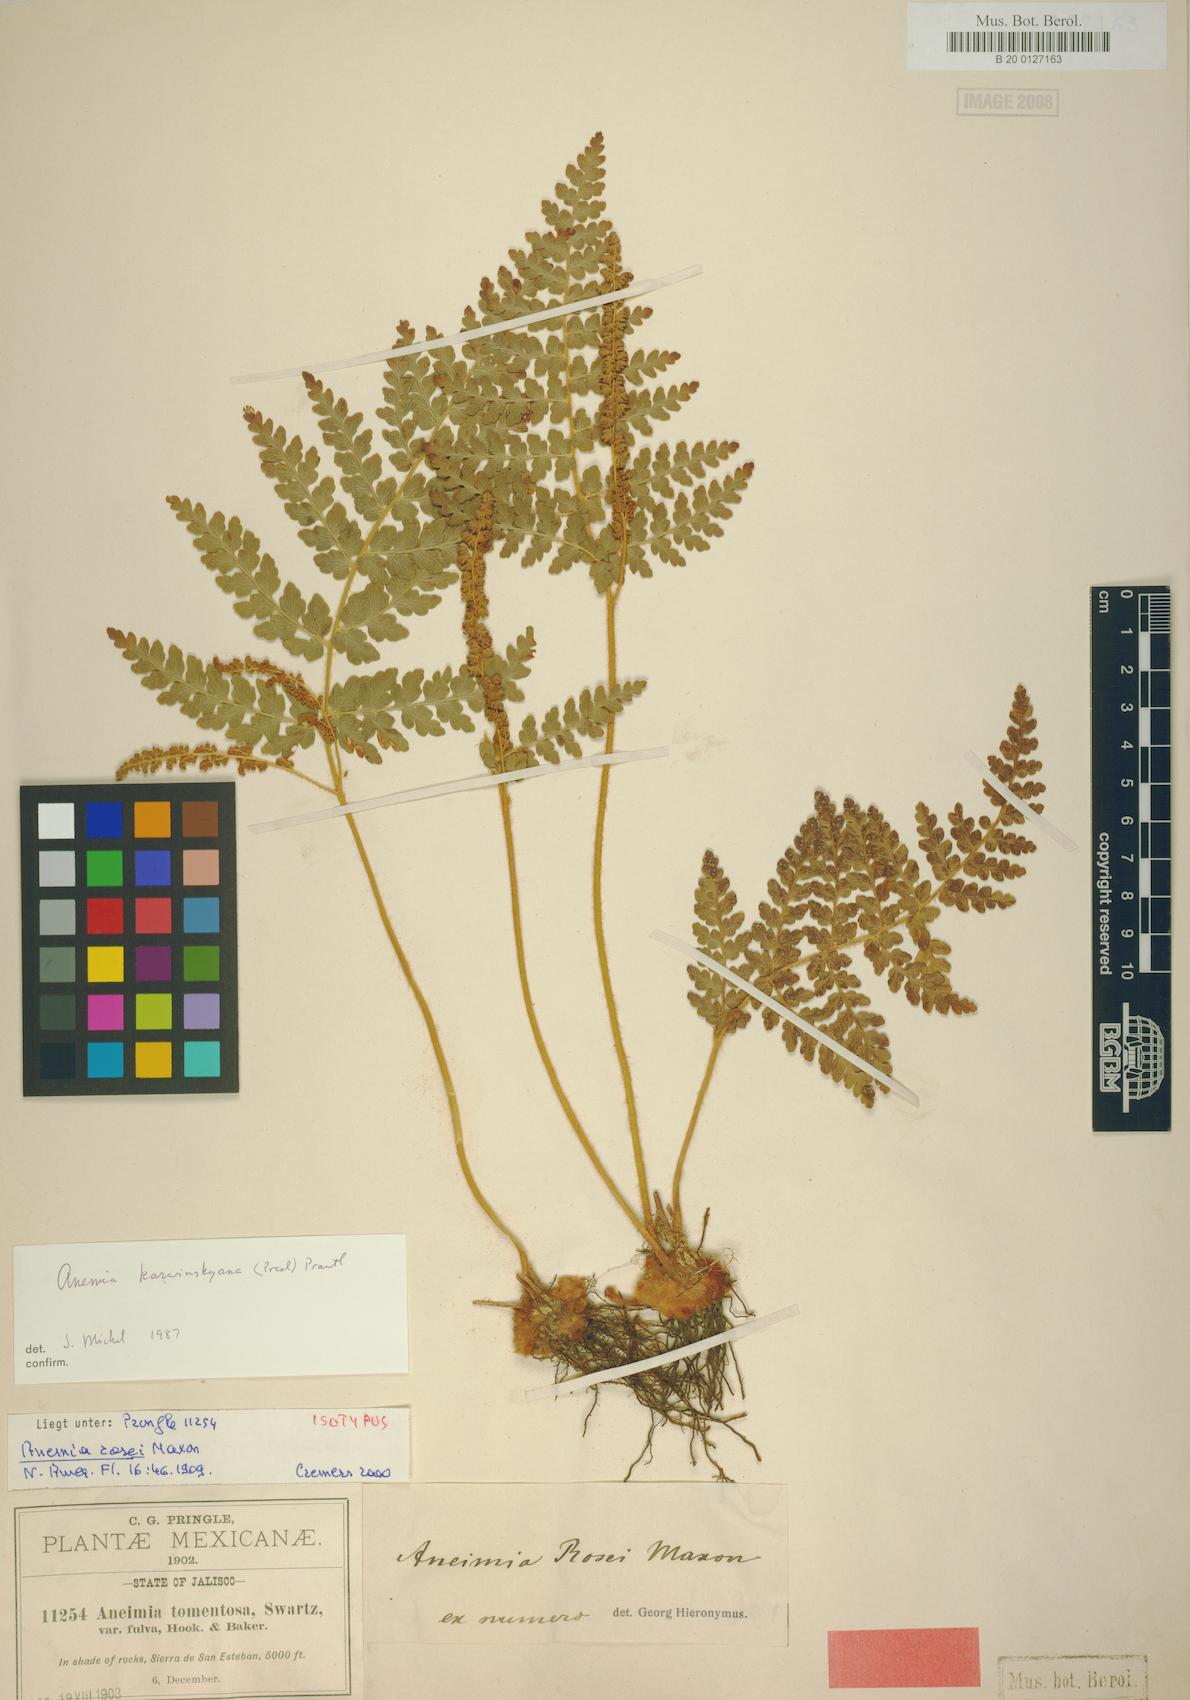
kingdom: Plantae
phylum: Tracheophyta
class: Polypodiopsida
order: Schizaeales
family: Anemiaceae
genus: Anemia
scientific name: Anemia karwinskyana
